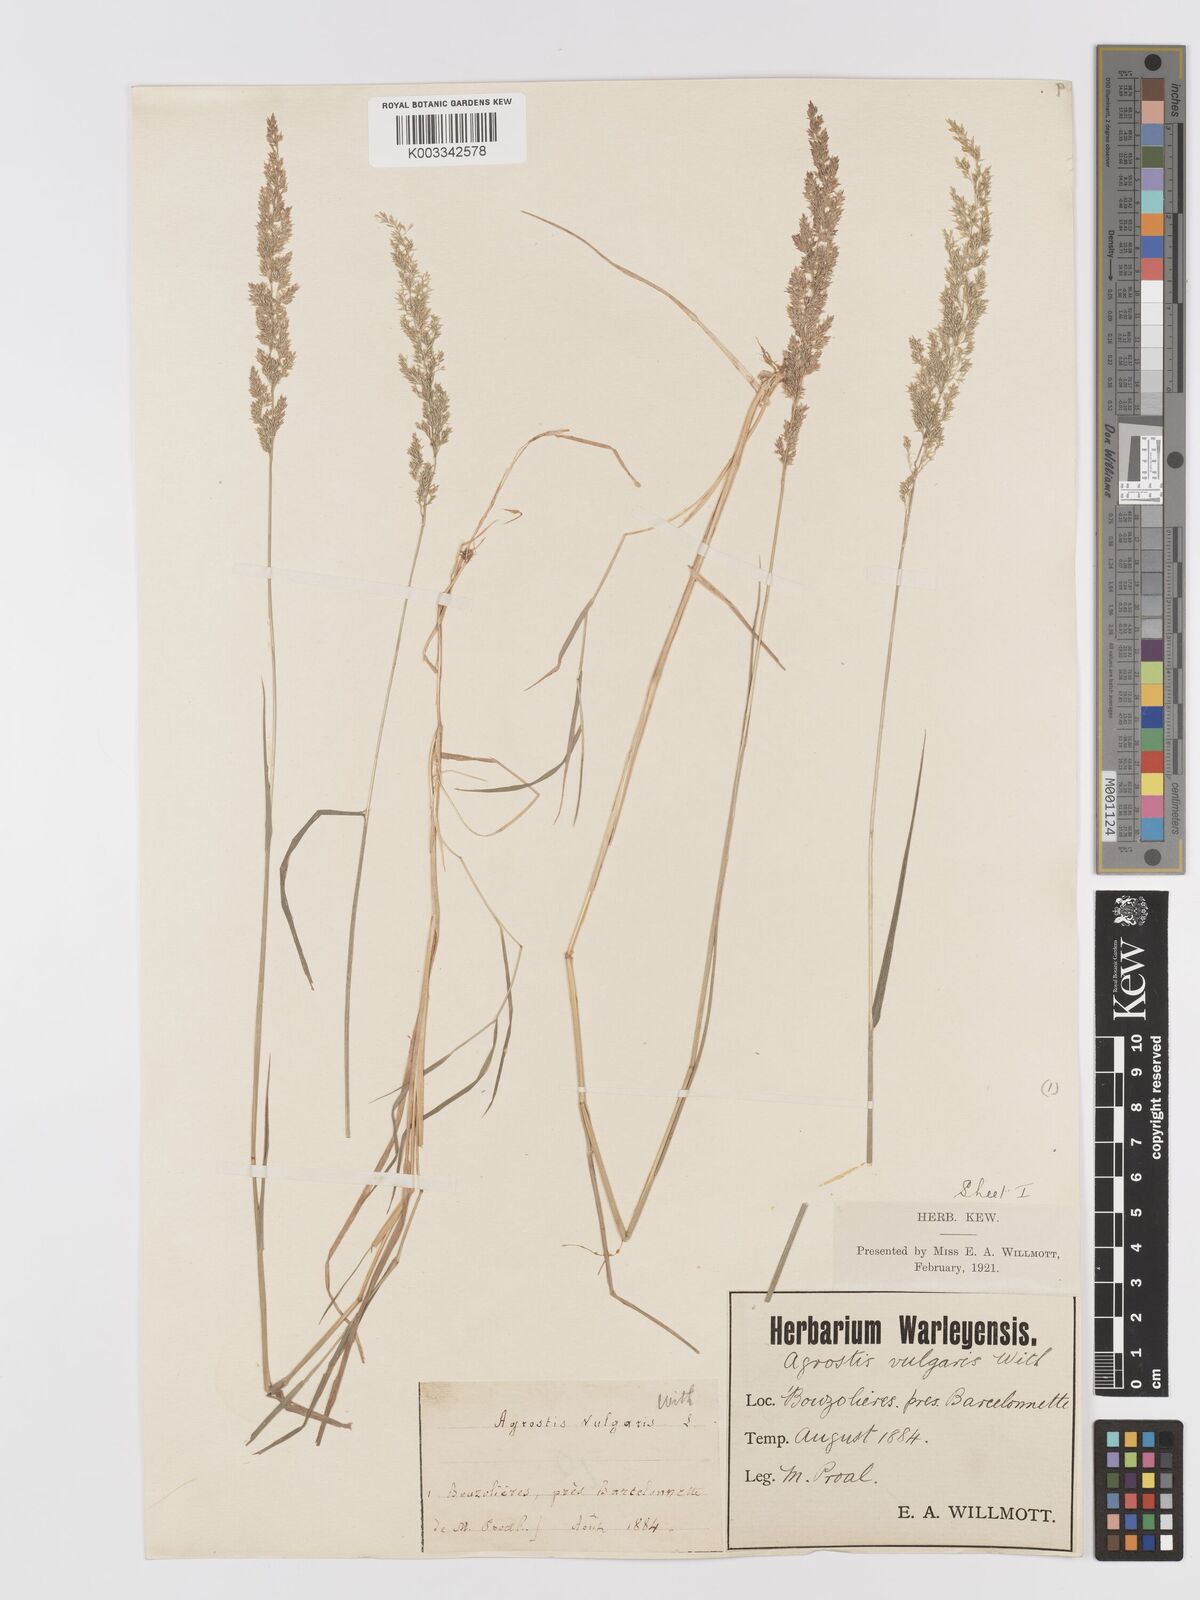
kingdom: Plantae
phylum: Tracheophyta
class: Liliopsida
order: Poales
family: Poaceae
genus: Agrostis
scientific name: Agrostis
